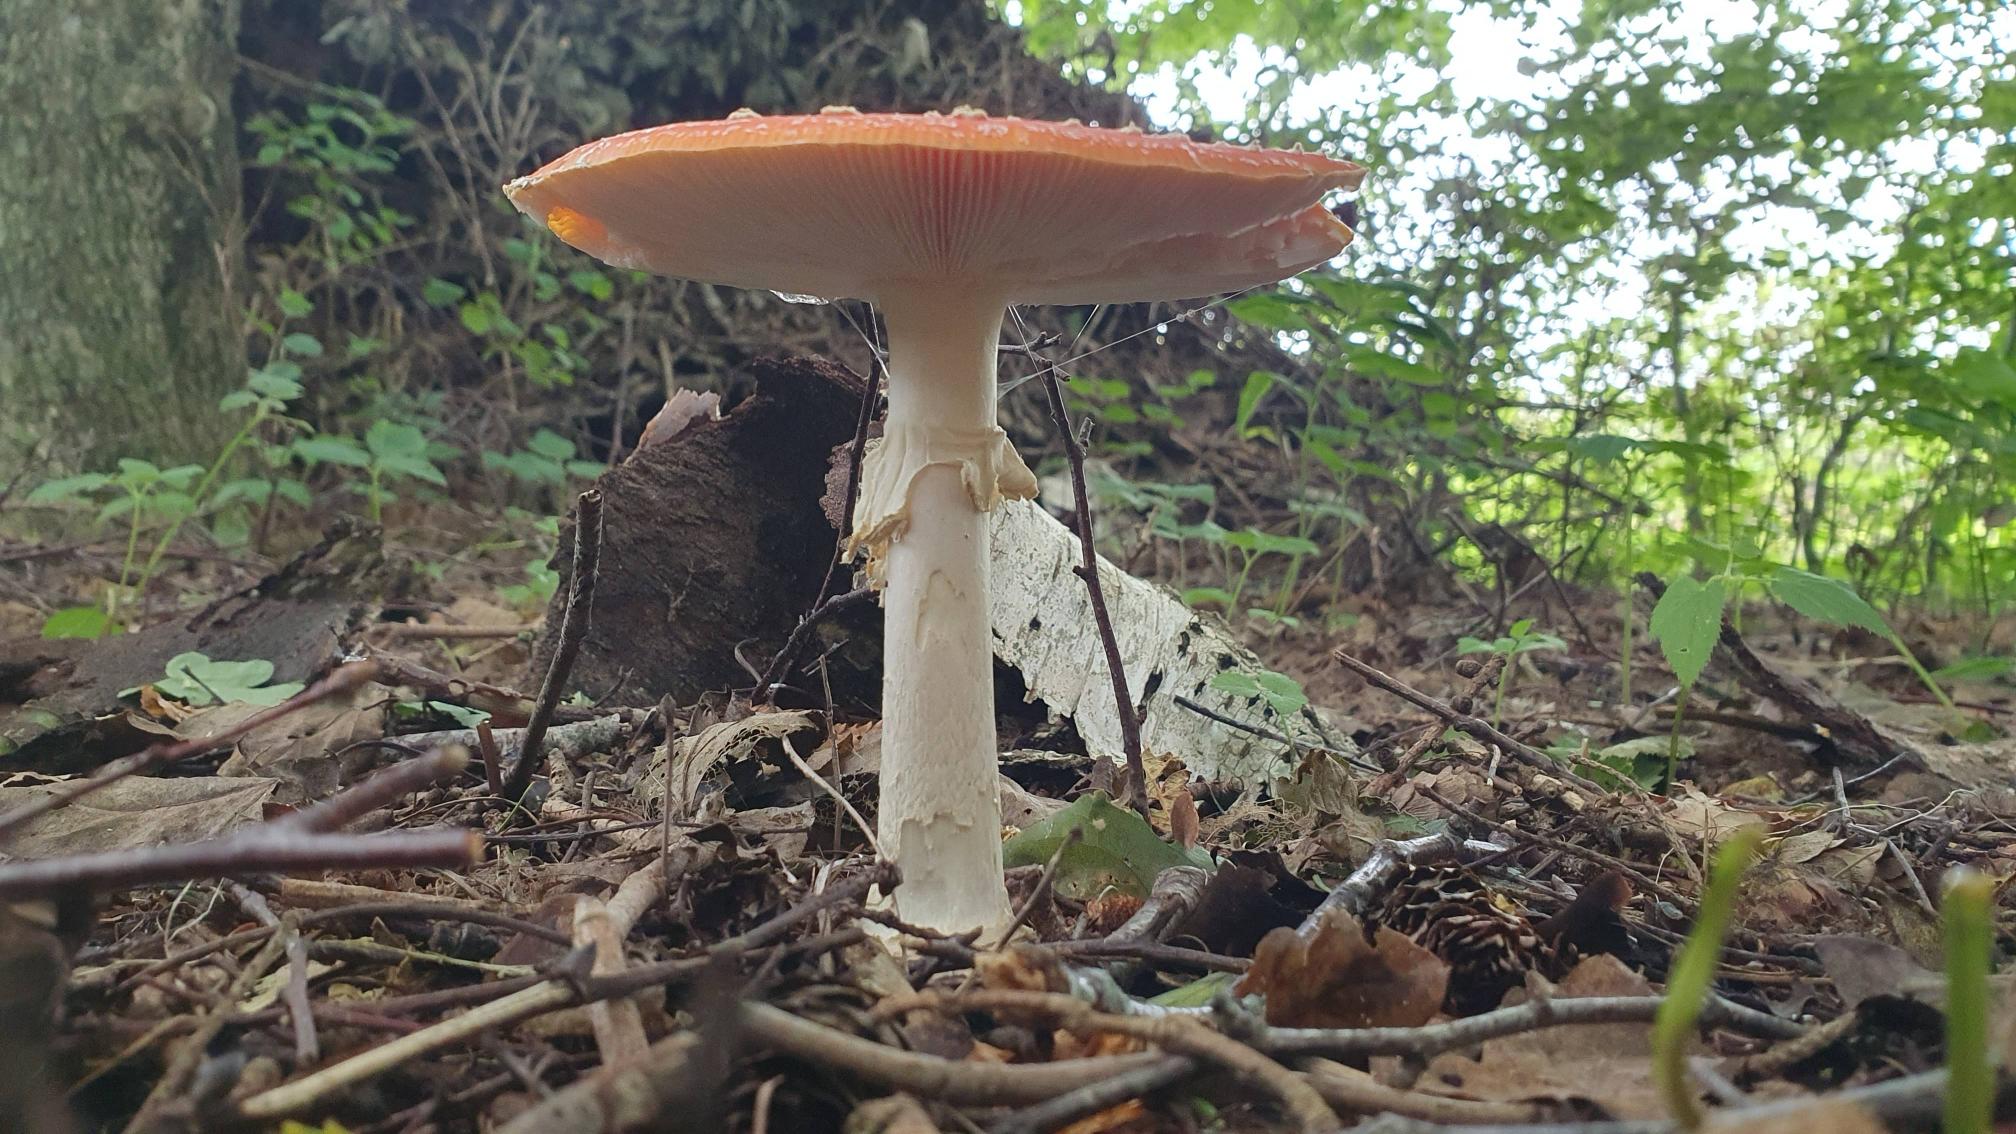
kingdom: Fungi
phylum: Basidiomycota
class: Agaricomycetes
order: Agaricales
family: Amanitaceae
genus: Amanita
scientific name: Amanita muscaria
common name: Rød fluesvamp
